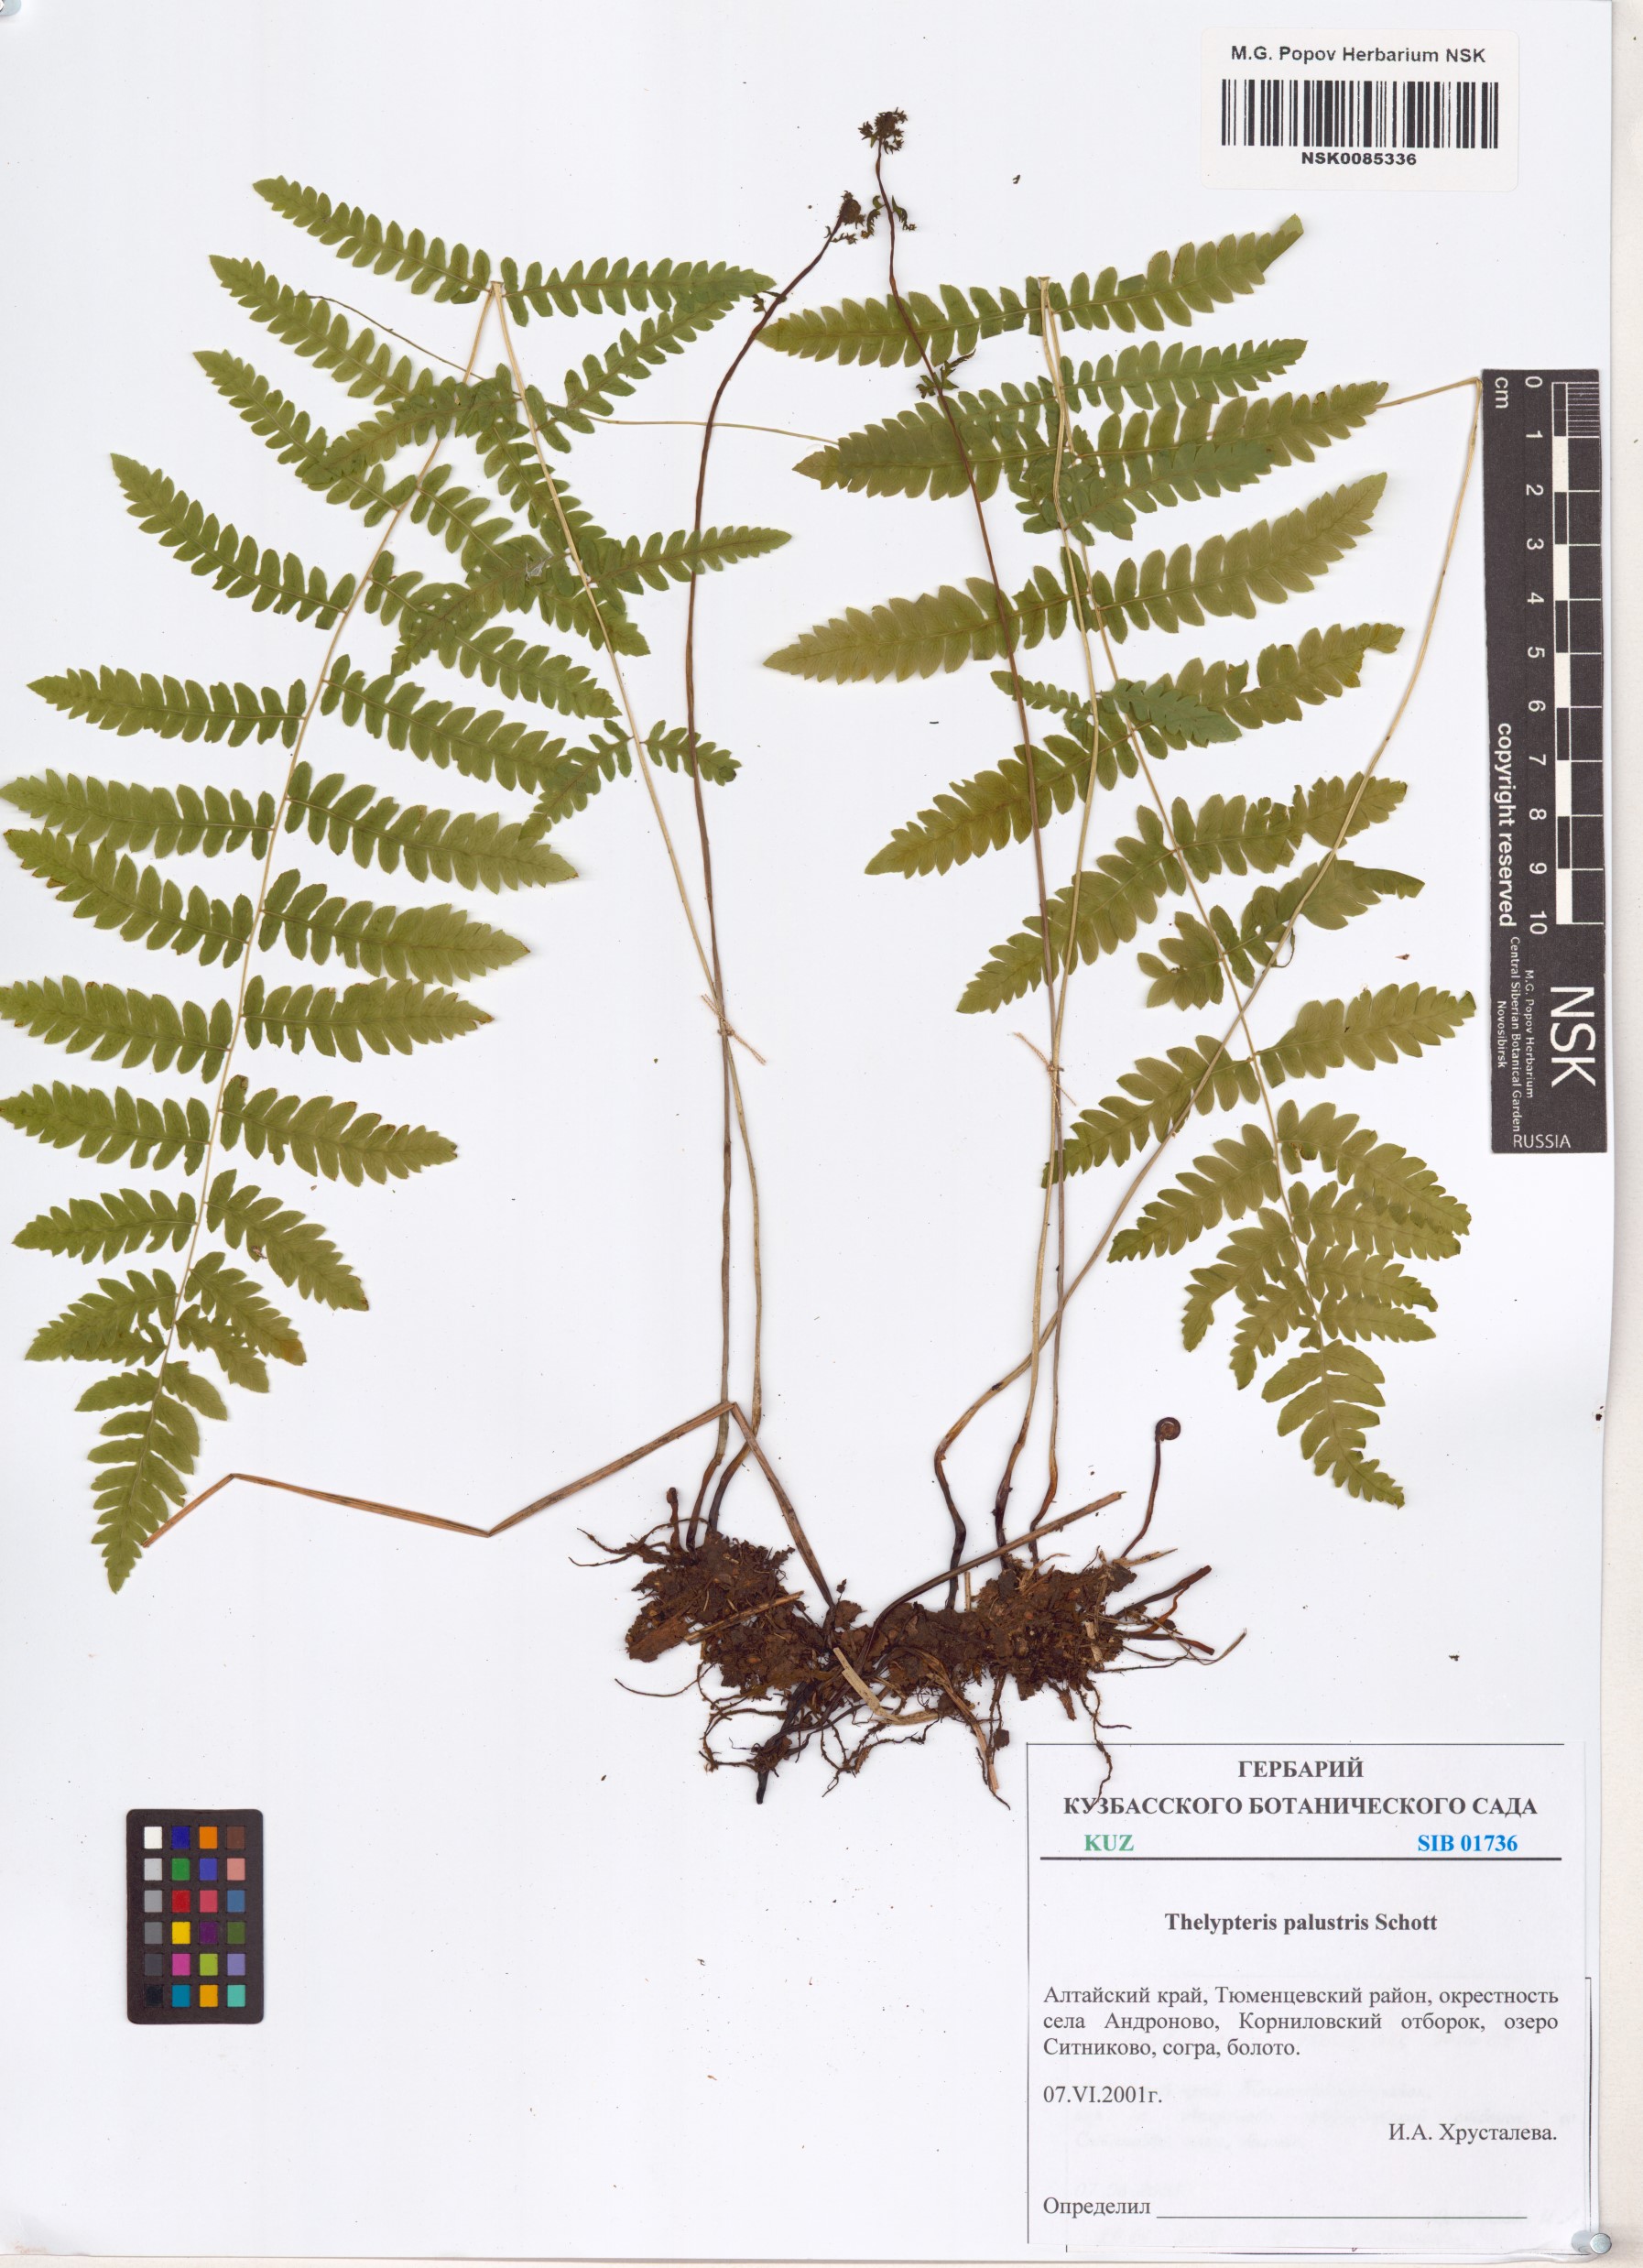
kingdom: Plantae
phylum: Tracheophyta
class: Polypodiopsida
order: Polypodiales
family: Thelypteridaceae
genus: Thelypteris
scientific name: Thelypteris palustris
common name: Marsh fern
